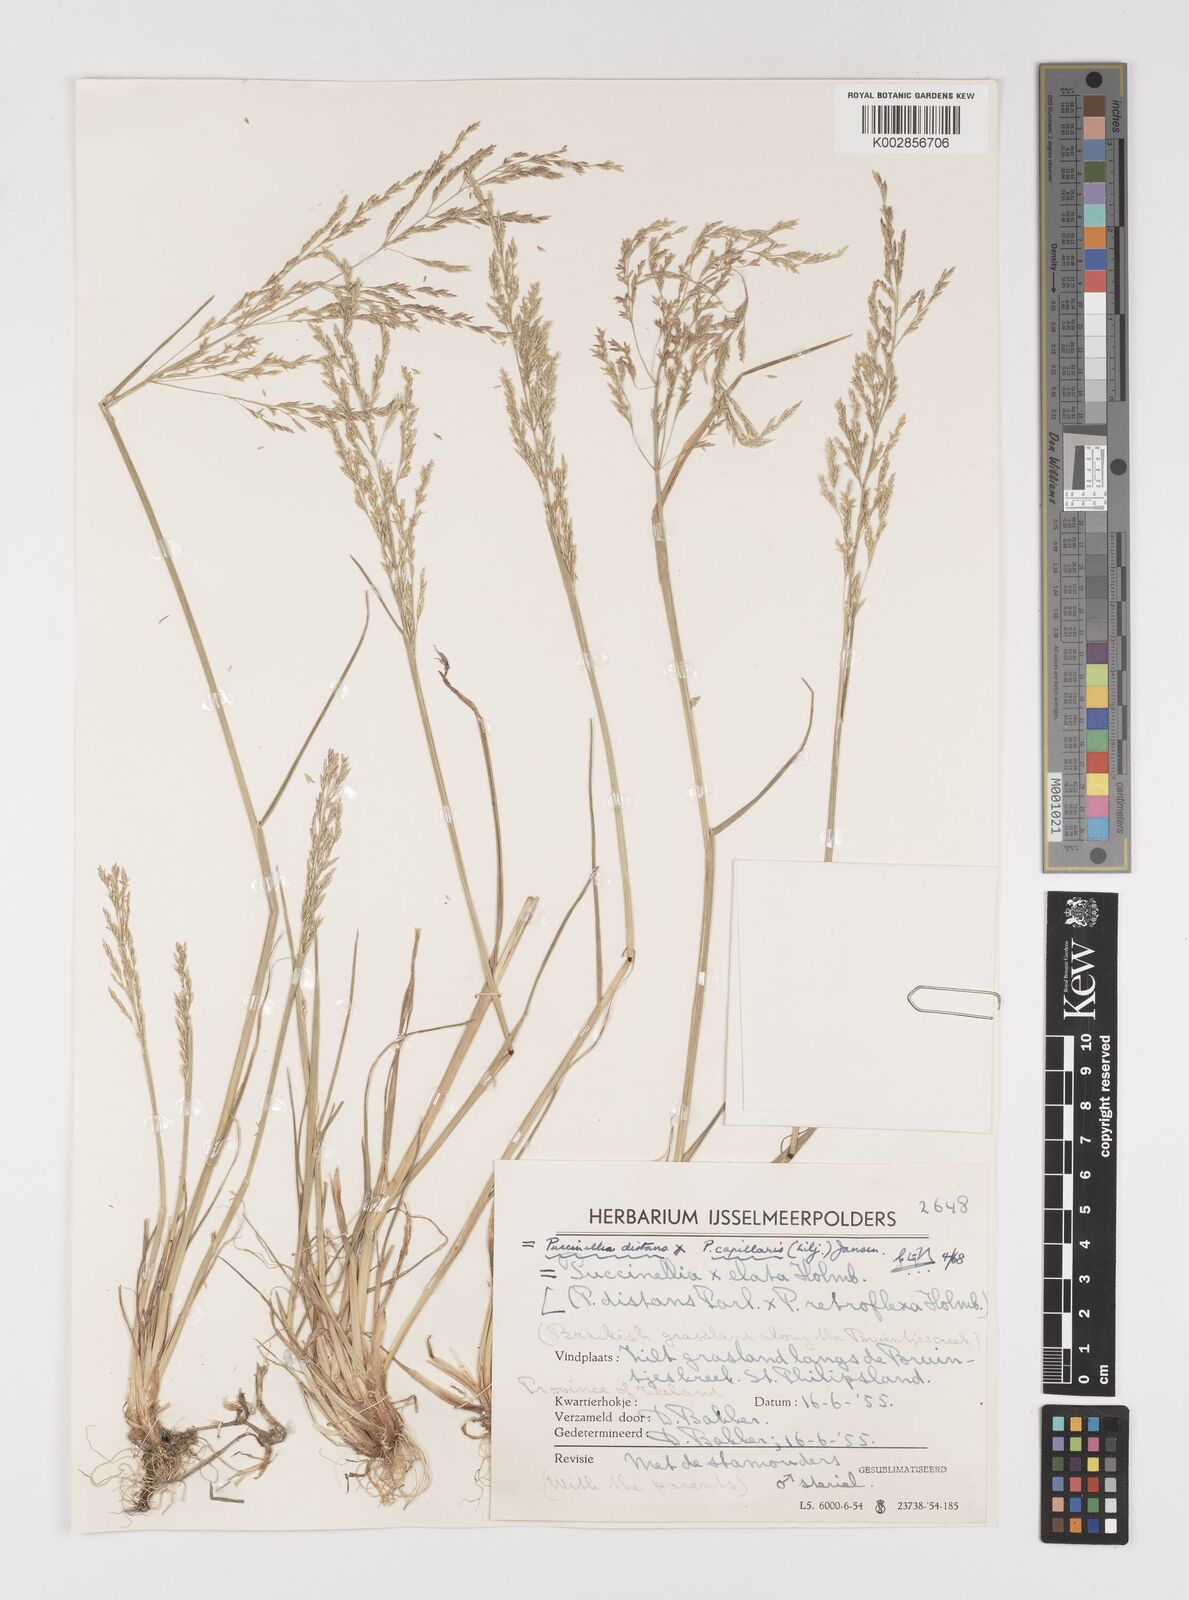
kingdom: Plantae
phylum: Tracheophyta
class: Liliopsida
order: Poales
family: Poaceae
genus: Puccinellia
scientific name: Puccinellia distans
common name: Weeping alkaligrass
